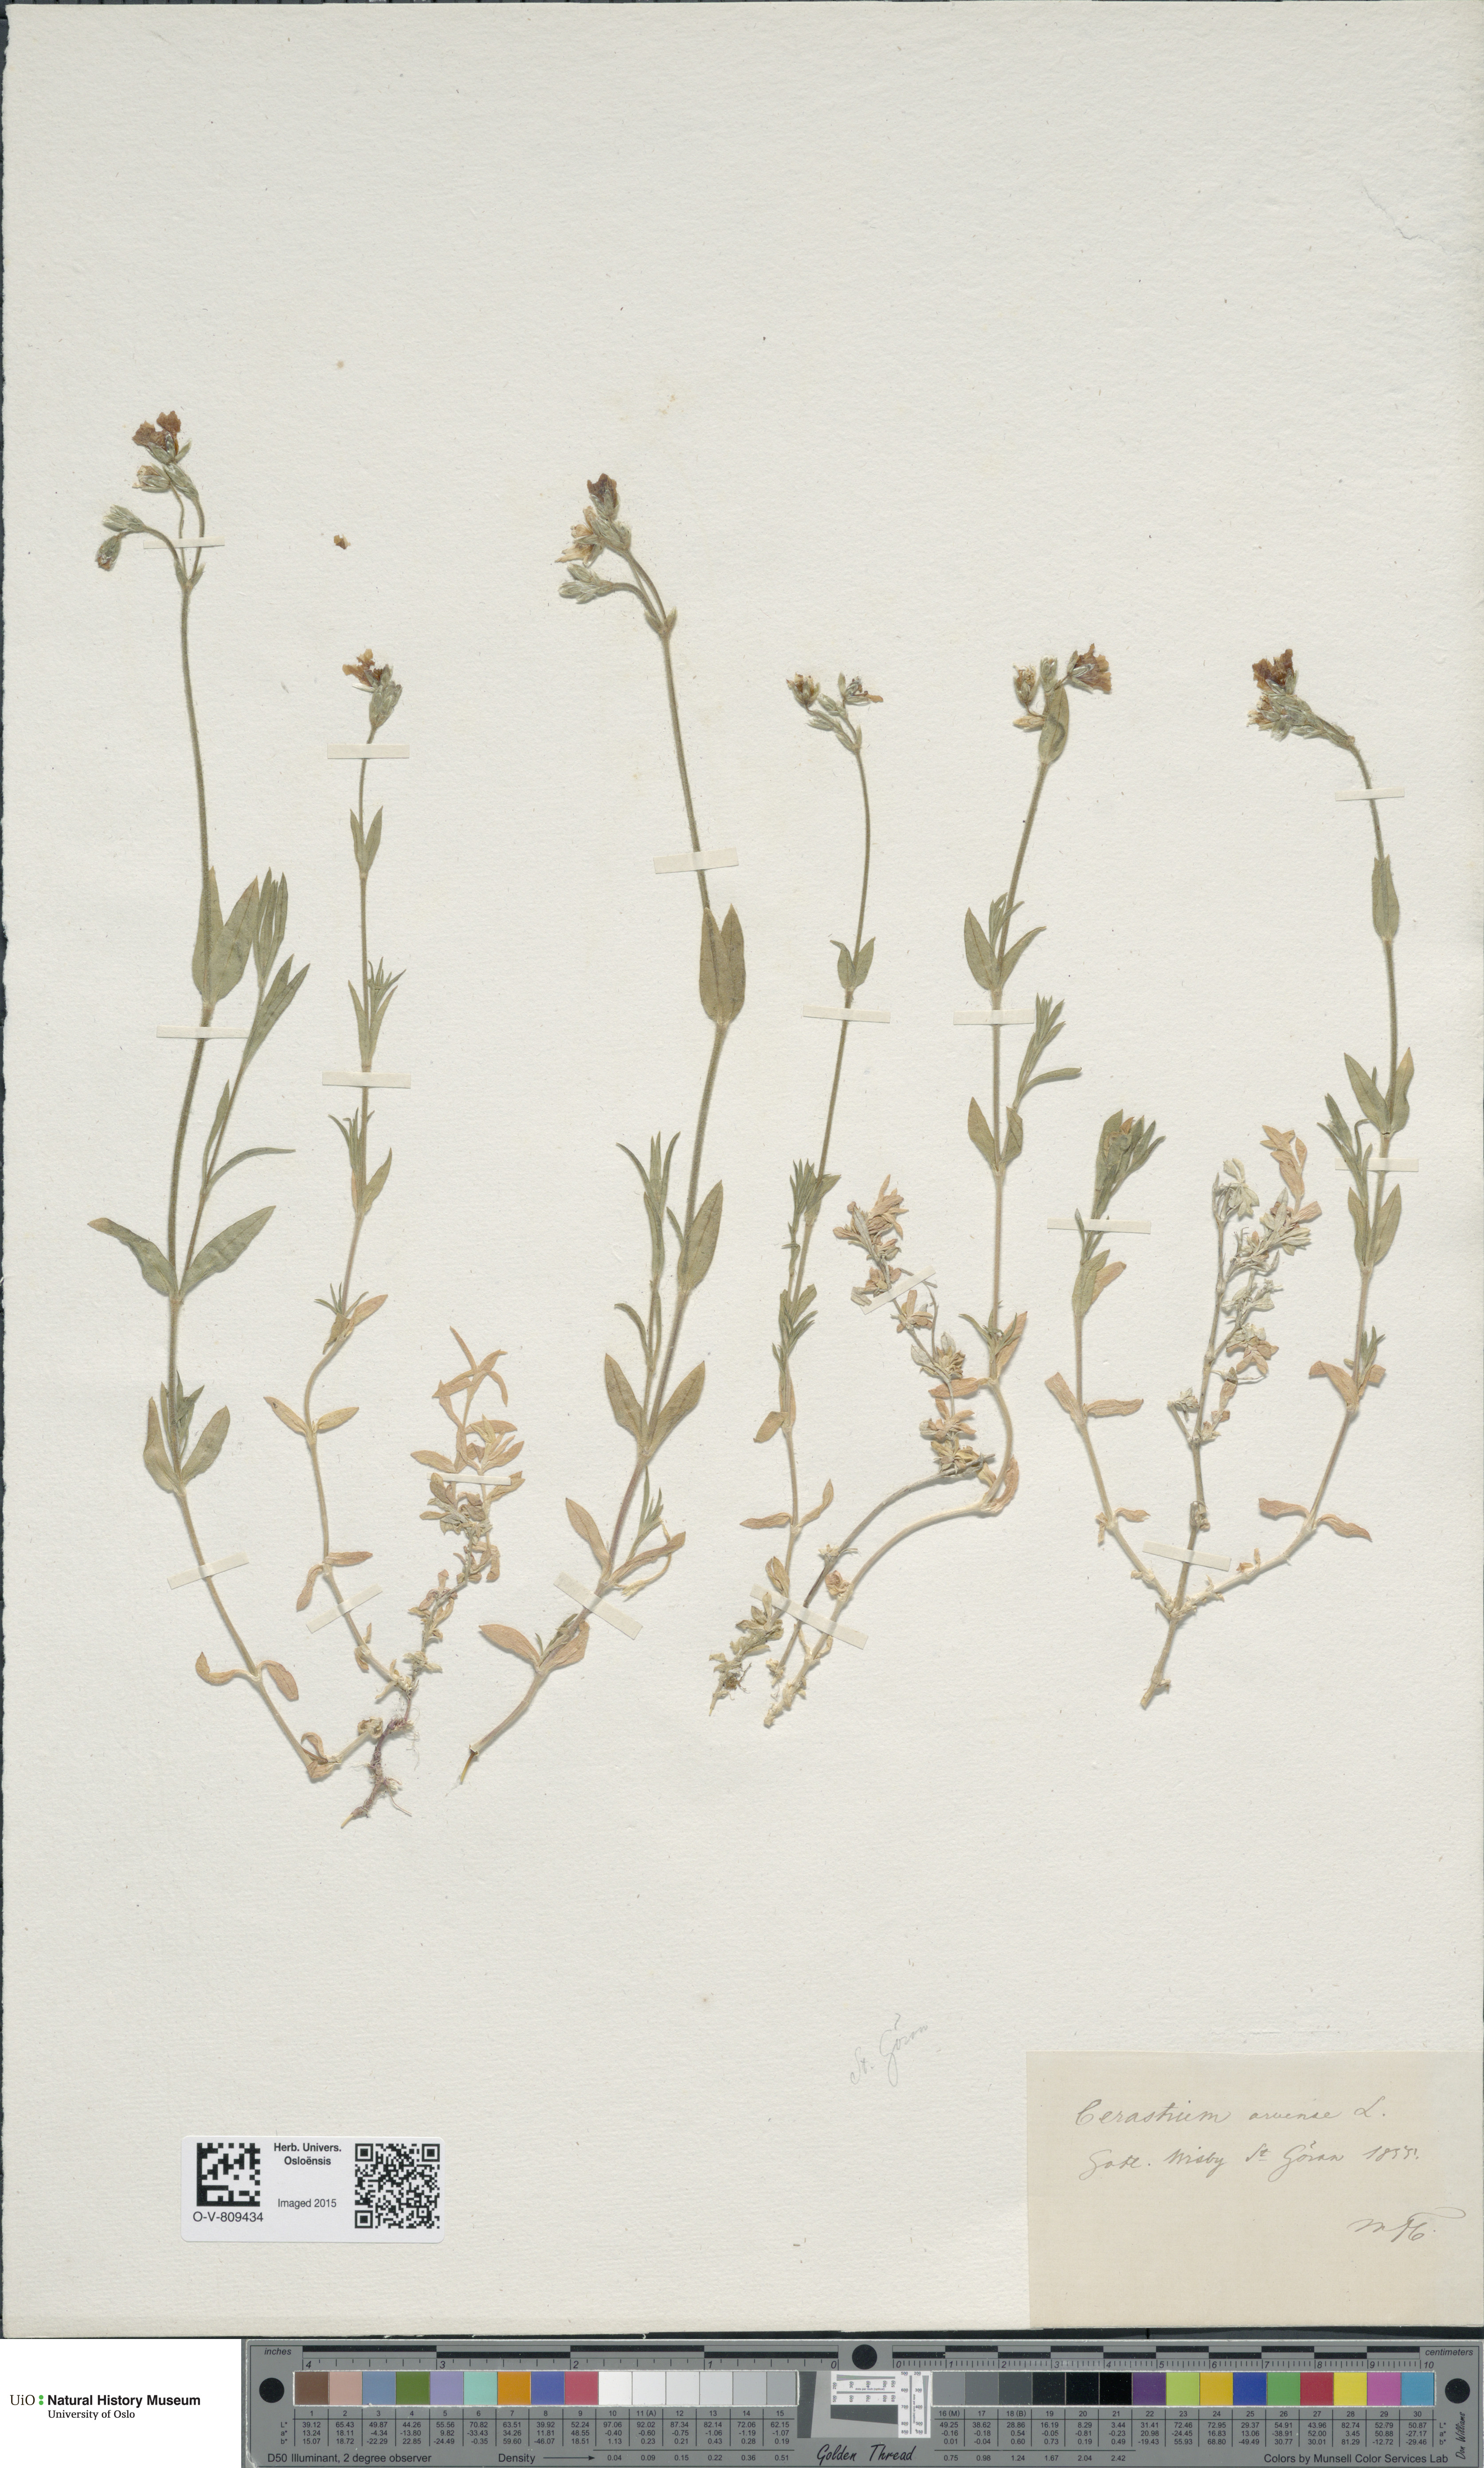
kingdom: Plantae
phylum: Tracheophyta
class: Magnoliopsida
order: Caryophyllales
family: Caryophyllaceae
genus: Cerastium
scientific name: Cerastium arvense
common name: Field mouse-ear
